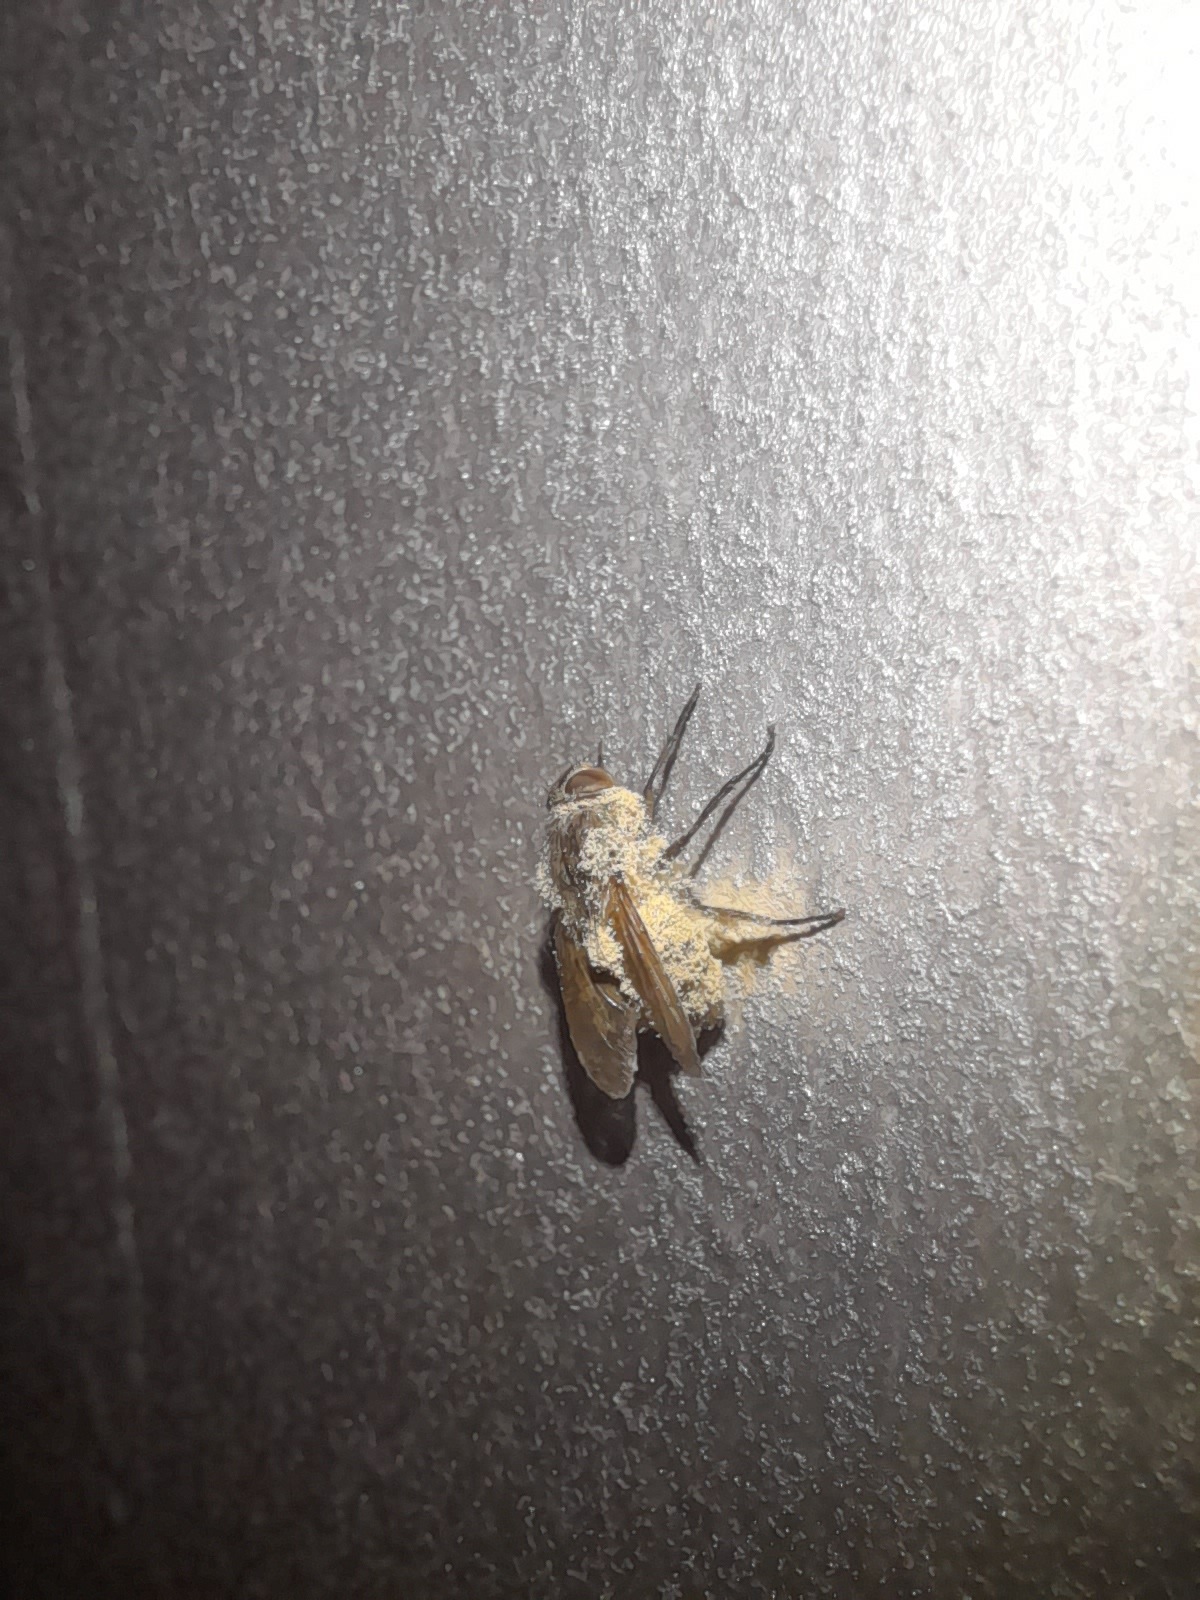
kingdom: Fungi
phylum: Entomophthoromycota
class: Entomophthoromycetes
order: Entomophthorales
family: Entomophthoraceae
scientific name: Entomophthoraceae
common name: flueskimmelfamilien
